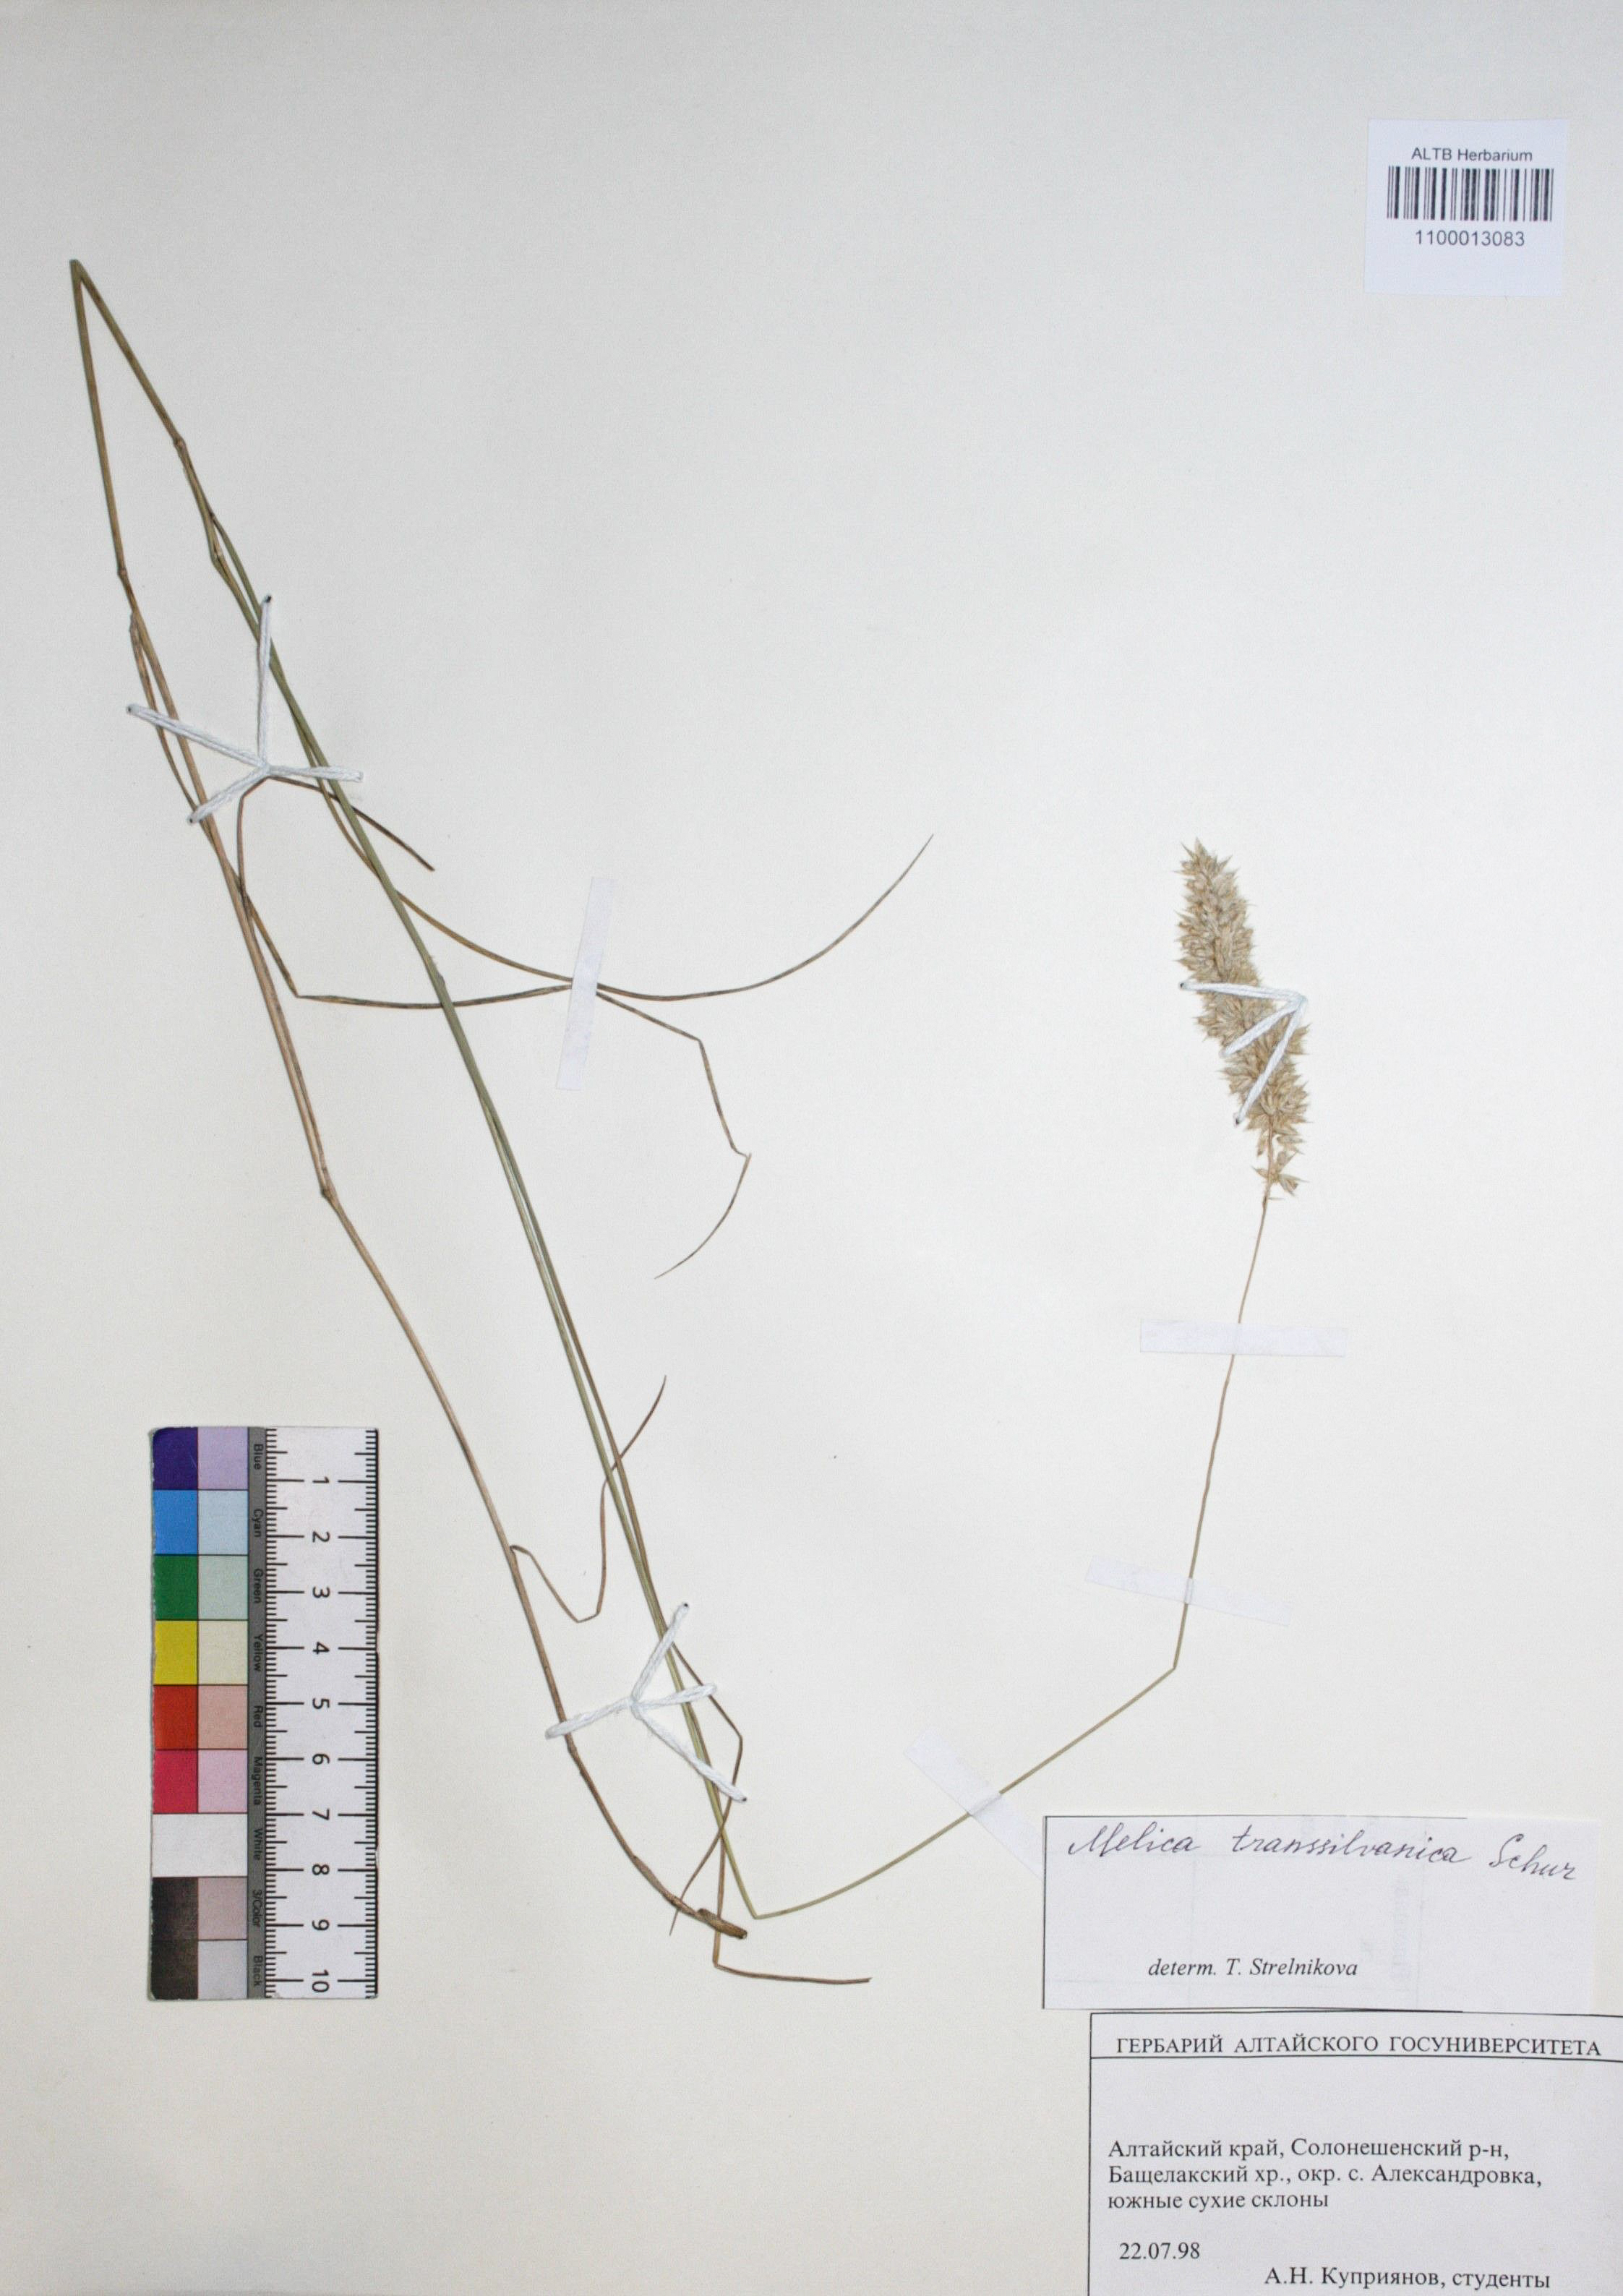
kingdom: Plantae
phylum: Tracheophyta
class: Liliopsida
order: Poales
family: Poaceae
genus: Melica
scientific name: Melica transsilvanica
